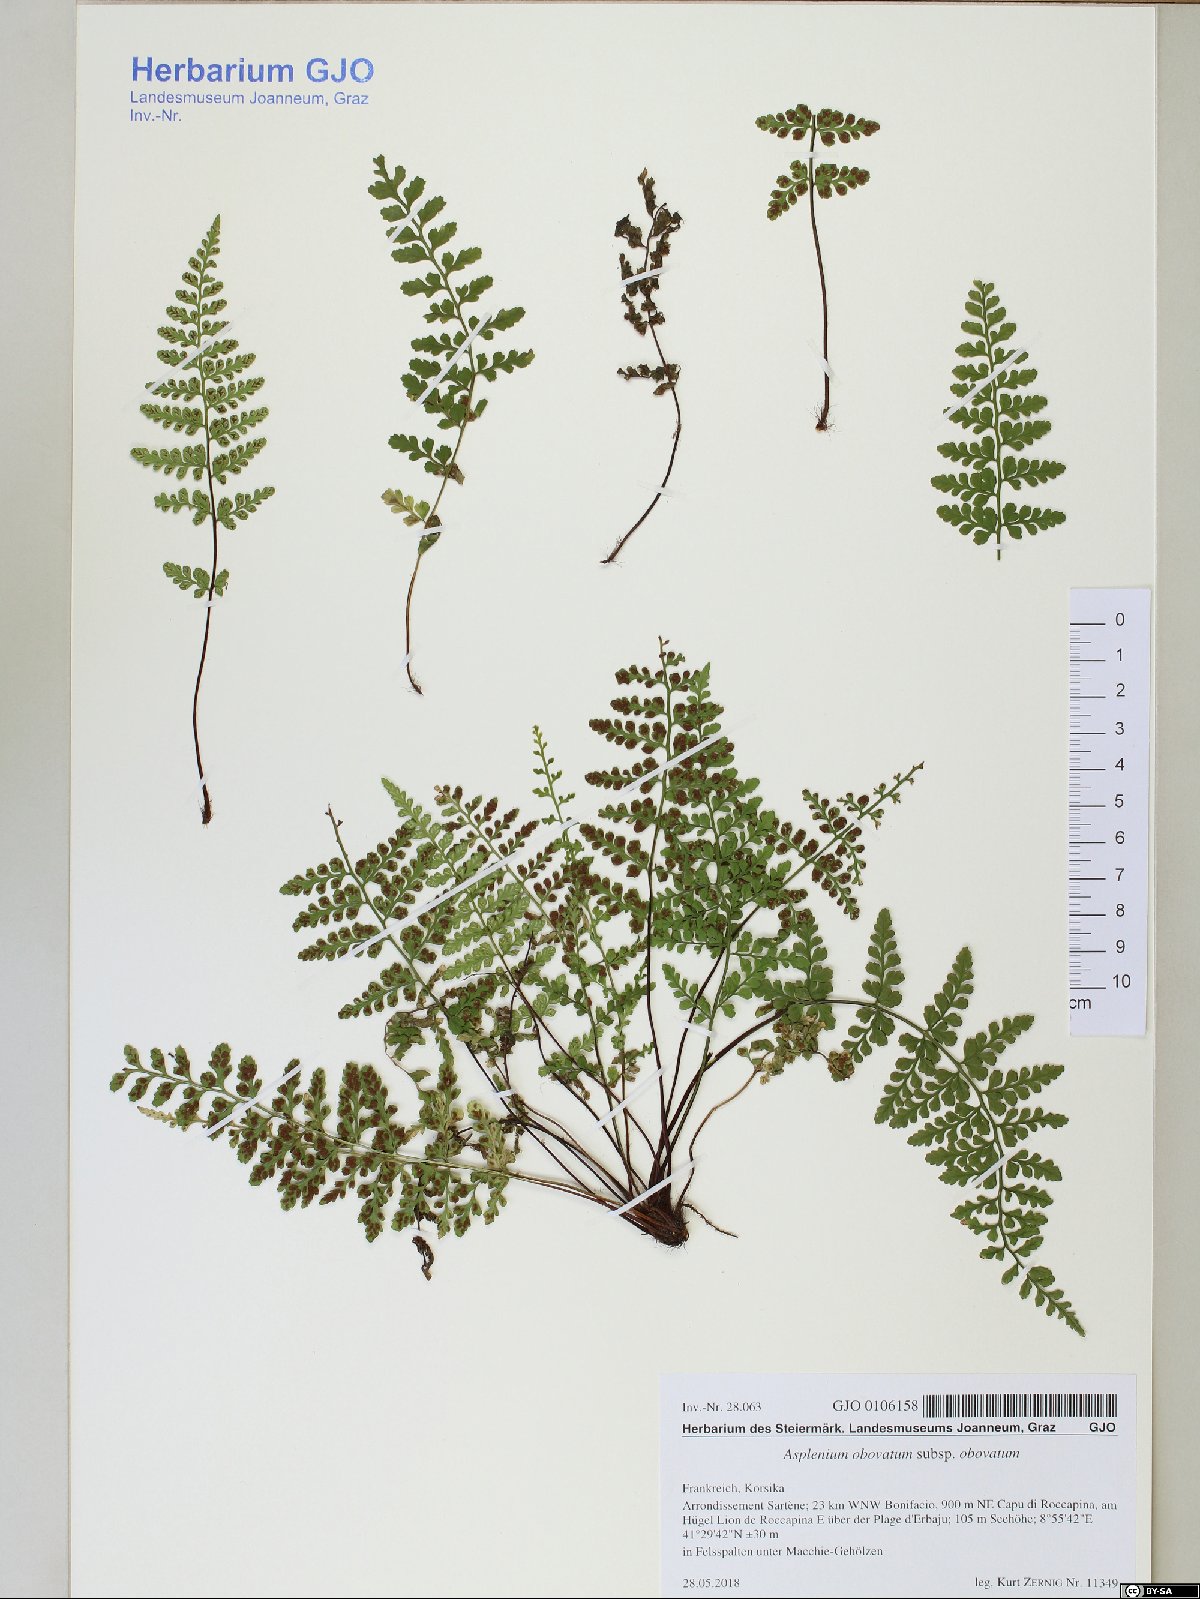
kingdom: Plantae
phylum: Tracheophyta
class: Polypodiopsida
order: Polypodiales
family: Aspleniaceae
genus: Asplenium
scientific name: Asplenium obovatum
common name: Lanceolate spleenwort
